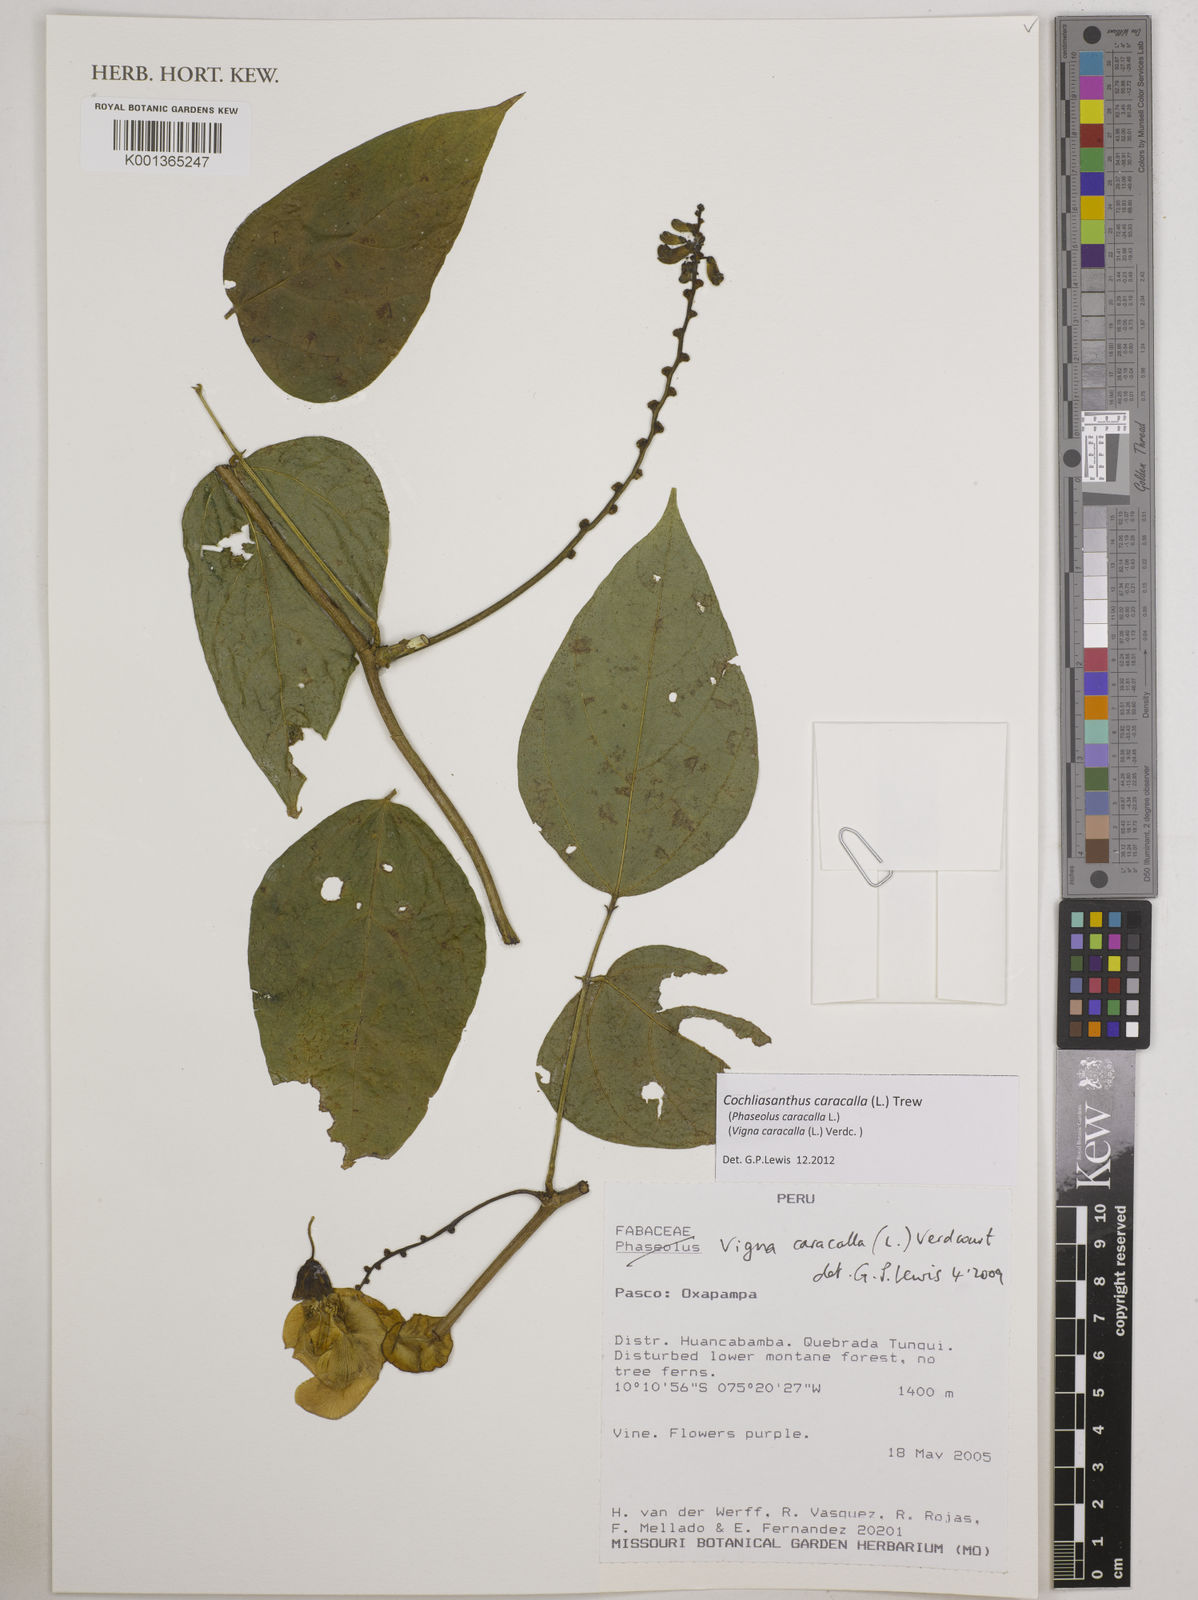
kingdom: Plantae
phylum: Tracheophyta
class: Magnoliopsida
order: Fabales
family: Fabaceae
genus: Cochliasanthus
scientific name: Cochliasanthus caracalla
